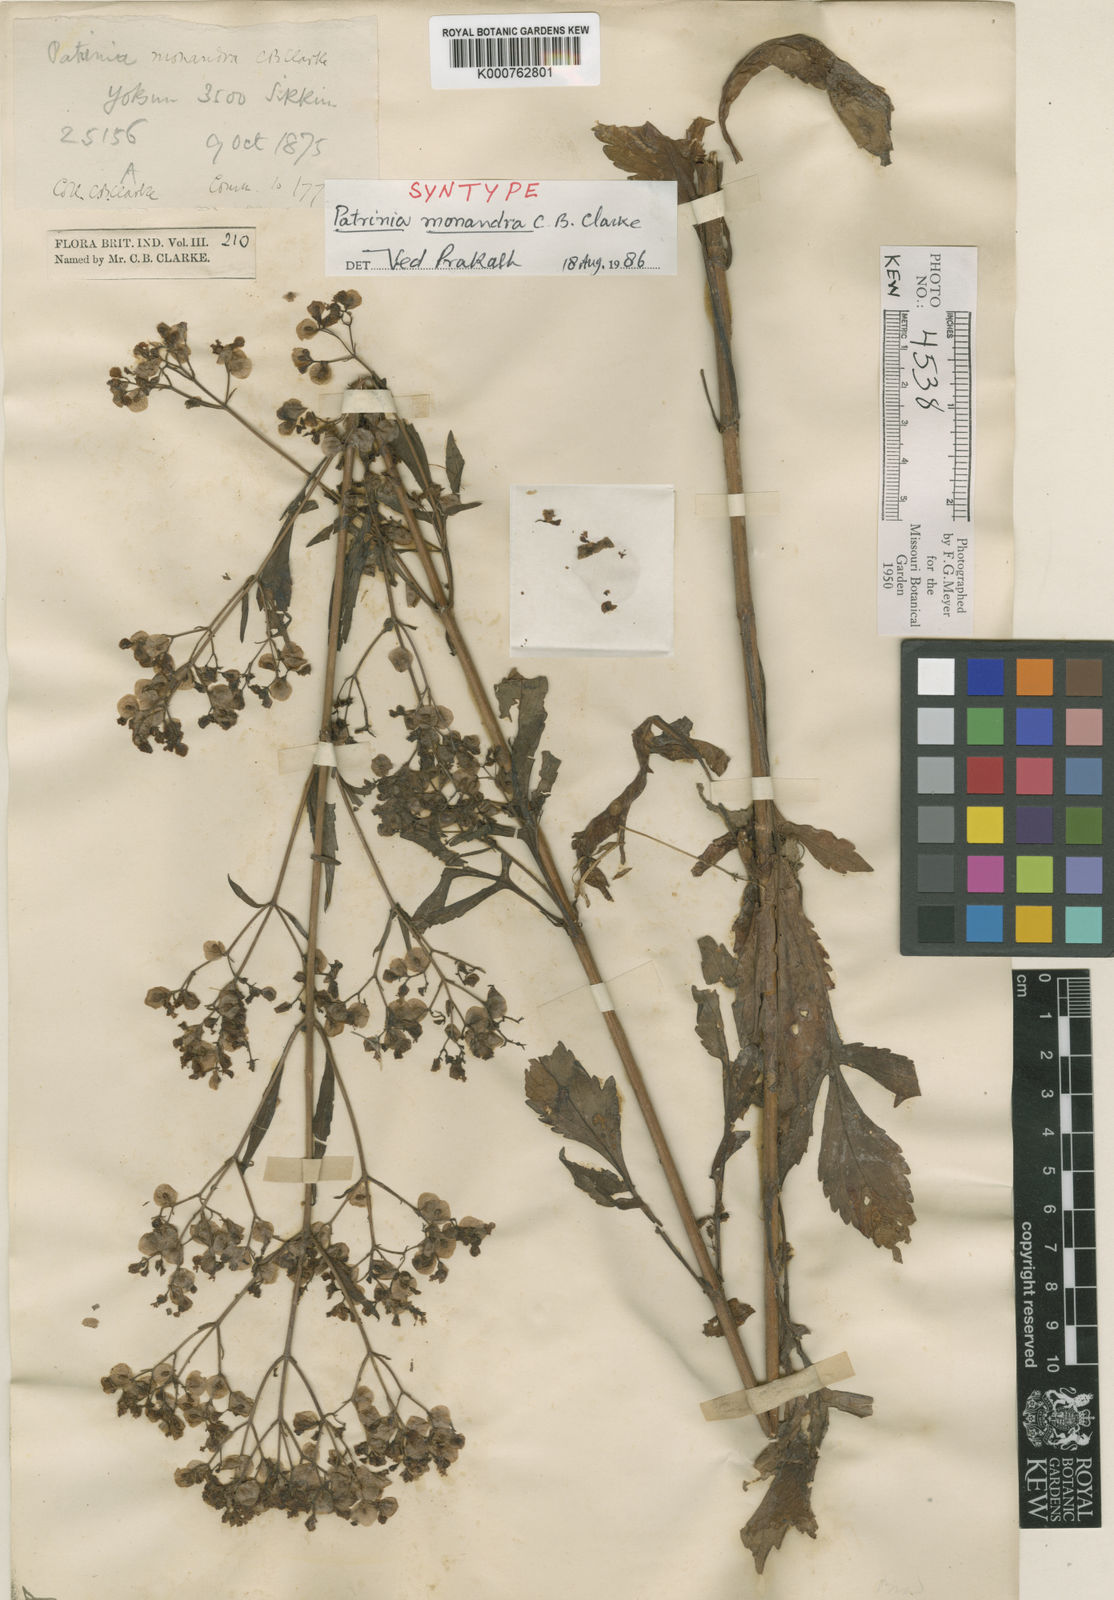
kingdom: Plantae
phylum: Tracheophyta
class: Magnoliopsida
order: Dipsacales
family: Caprifoliaceae
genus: Patrinia
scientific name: Patrinia monandra
